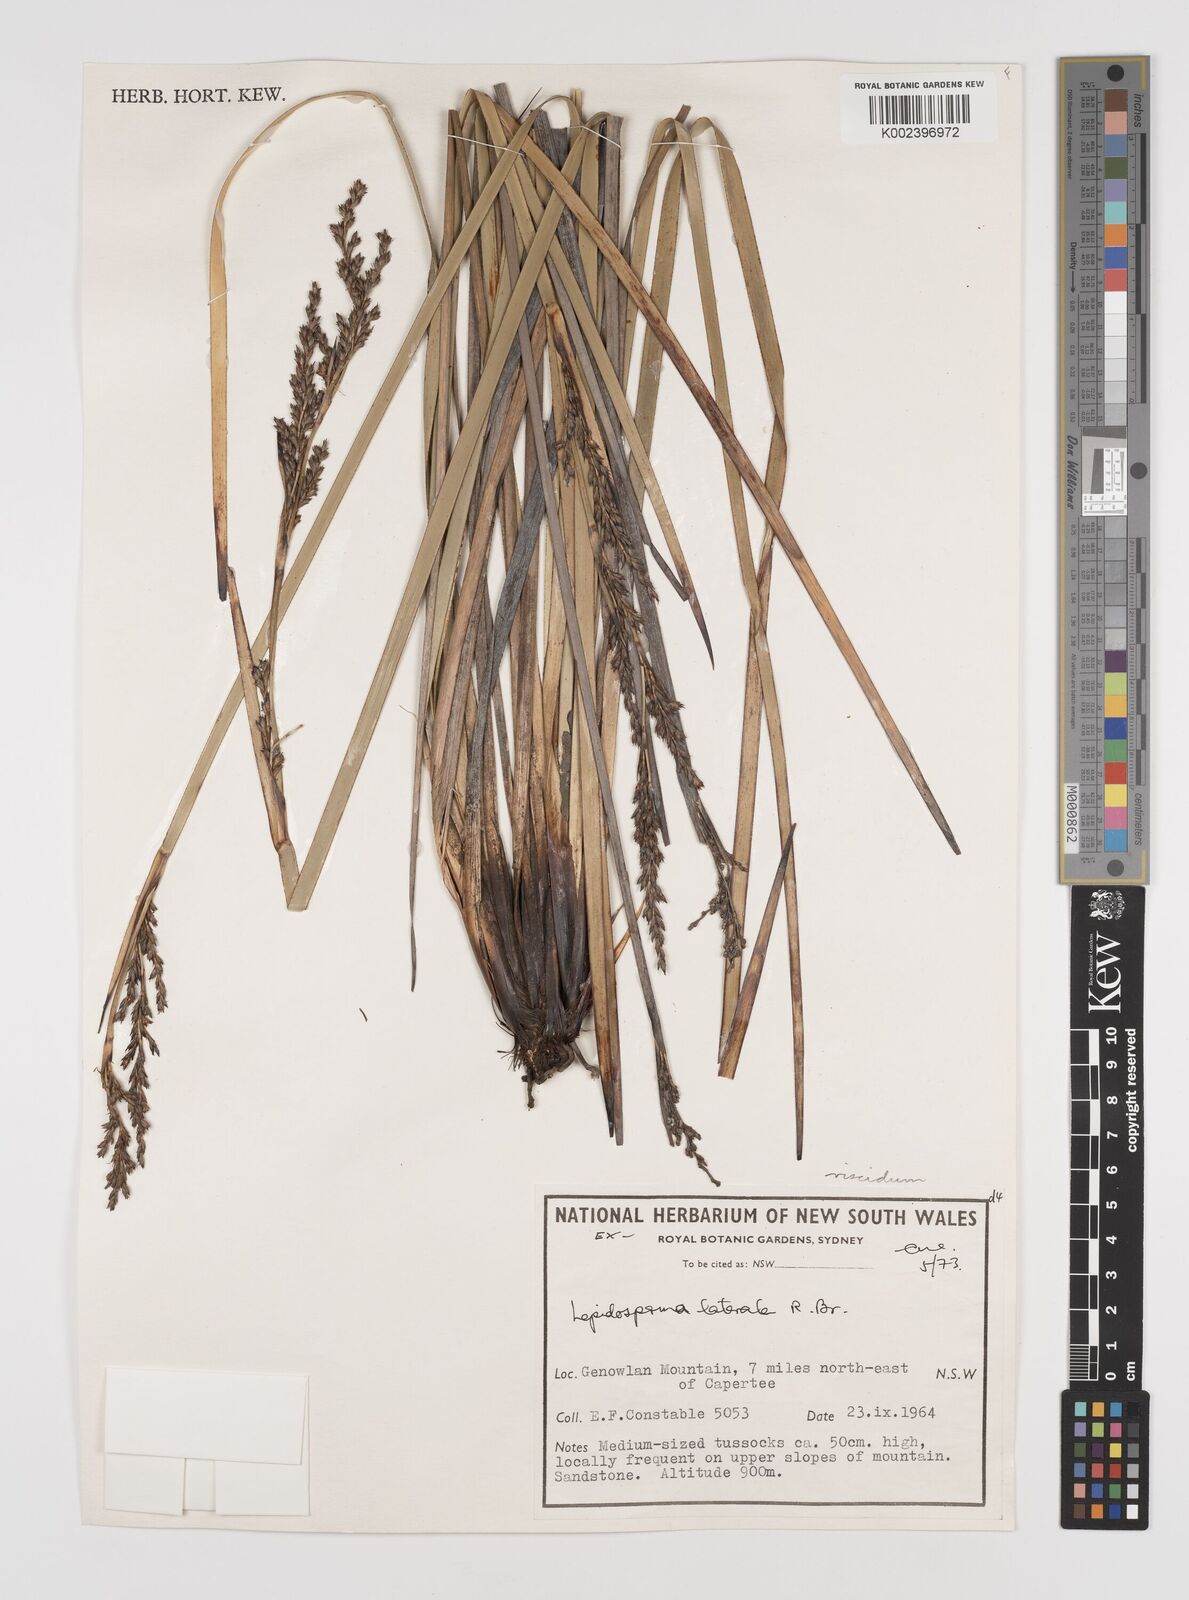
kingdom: Plantae
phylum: Tracheophyta
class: Liliopsida
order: Poales
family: Cyperaceae
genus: Lepidosperma
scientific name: Lepidosperma viscidum
